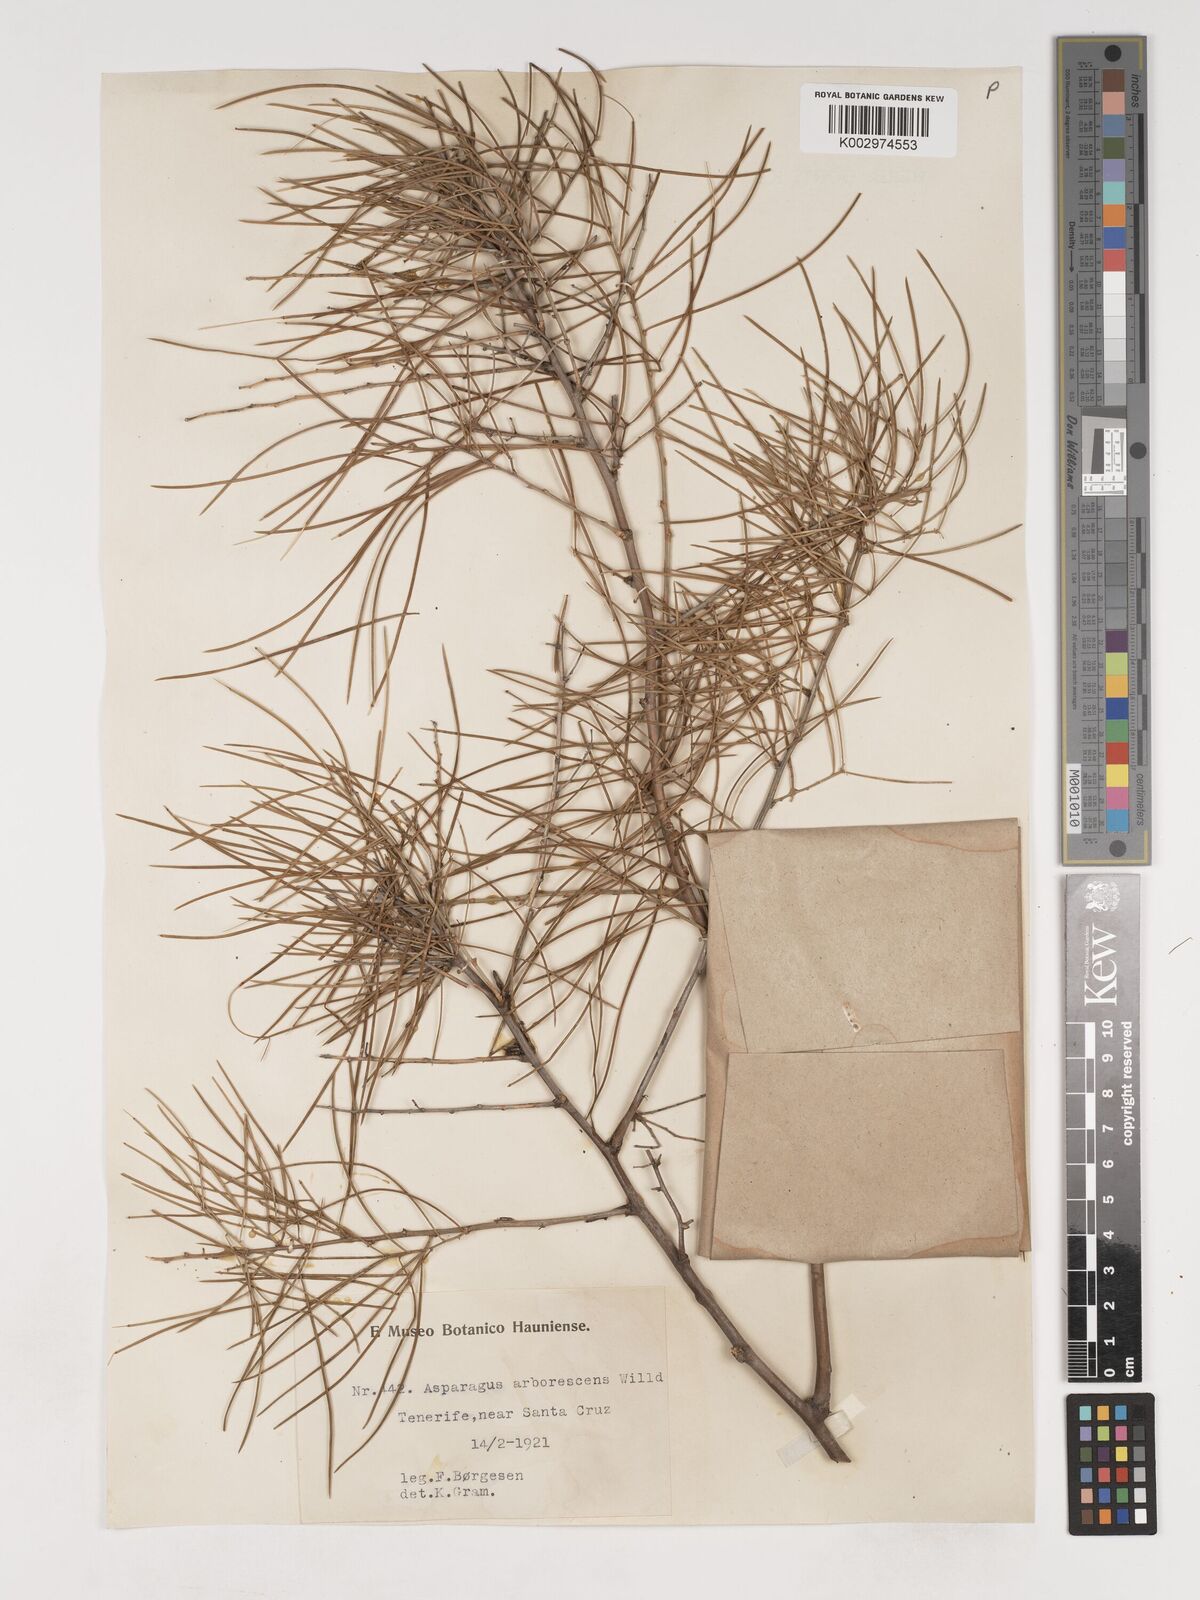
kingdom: Plantae
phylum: Tracheophyta
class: Liliopsida
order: Asparagales
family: Asparagaceae
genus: Asparagus
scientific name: Asparagus arborescens
